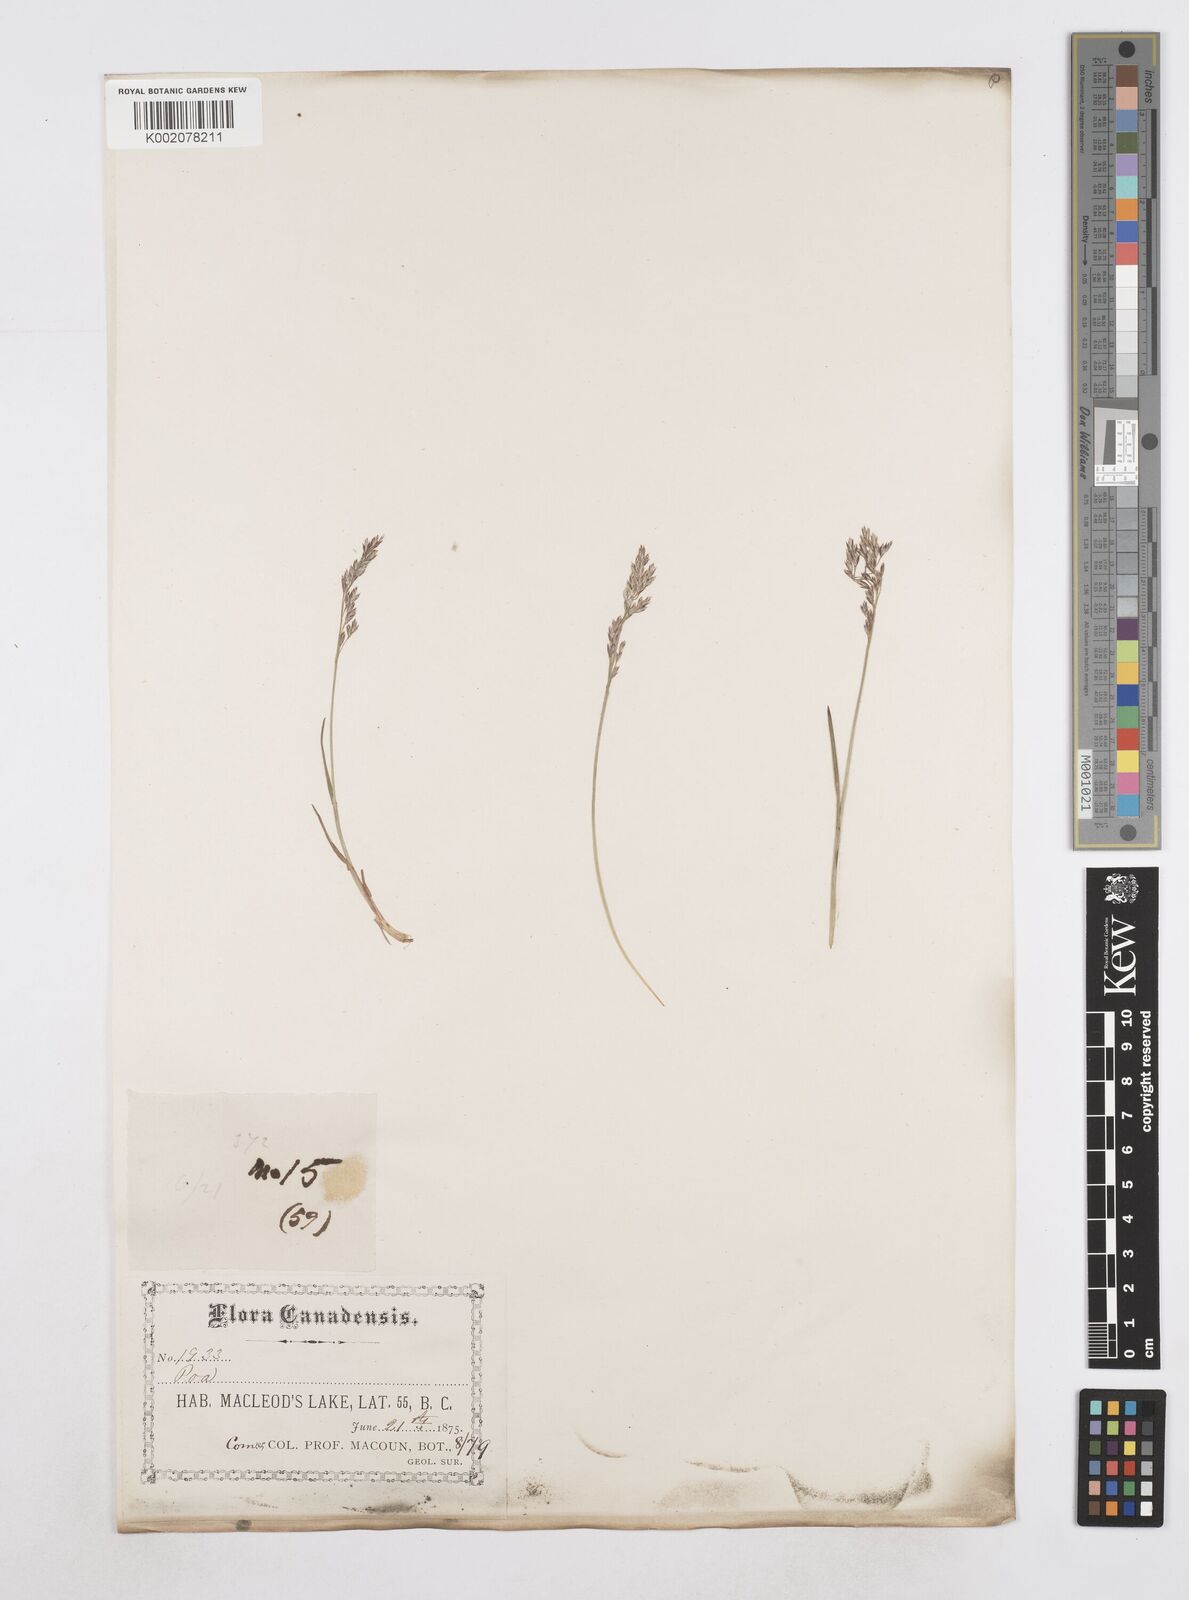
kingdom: Plantae
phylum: Tracheophyta
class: Liliopsida
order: Poales
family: Poaceae
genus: Poa
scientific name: Poa
